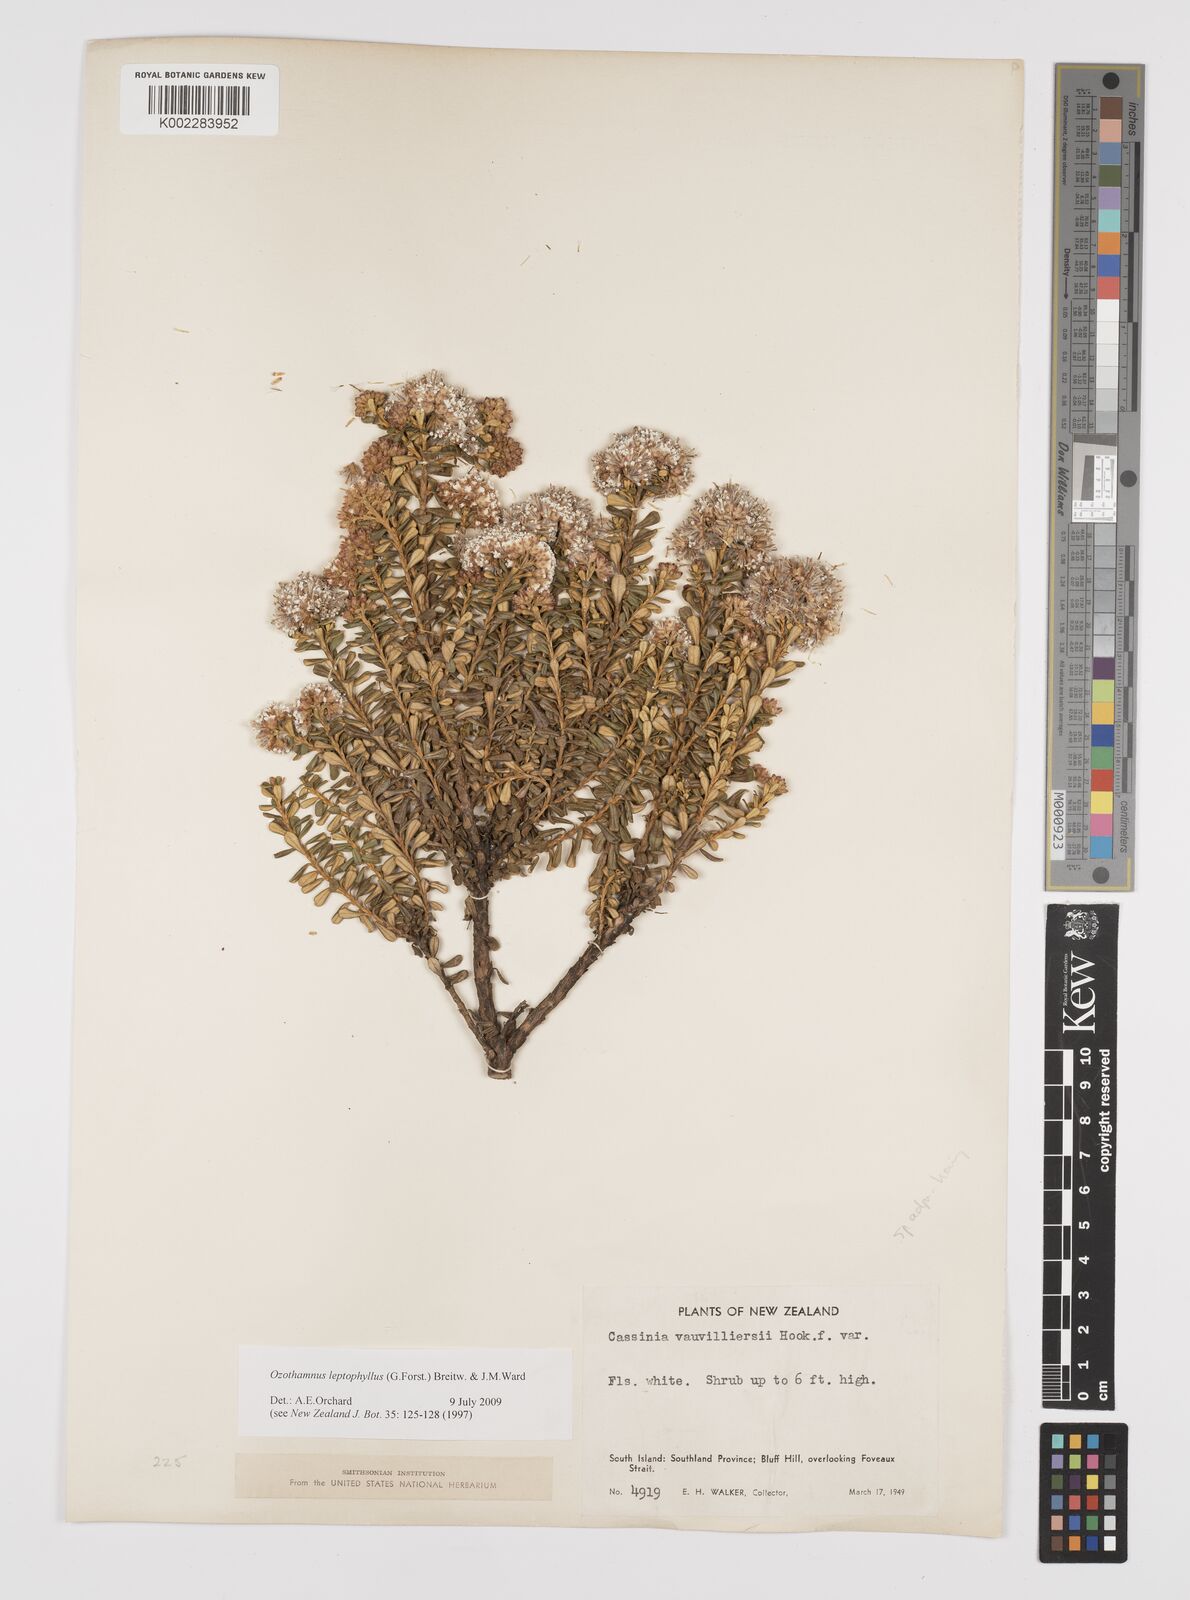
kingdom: Plantae
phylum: Tracheophyta
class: Magnoliopsida
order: Asterales
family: Asteraceae
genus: Ozothamnus
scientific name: Ozothamnus leptophyllus
